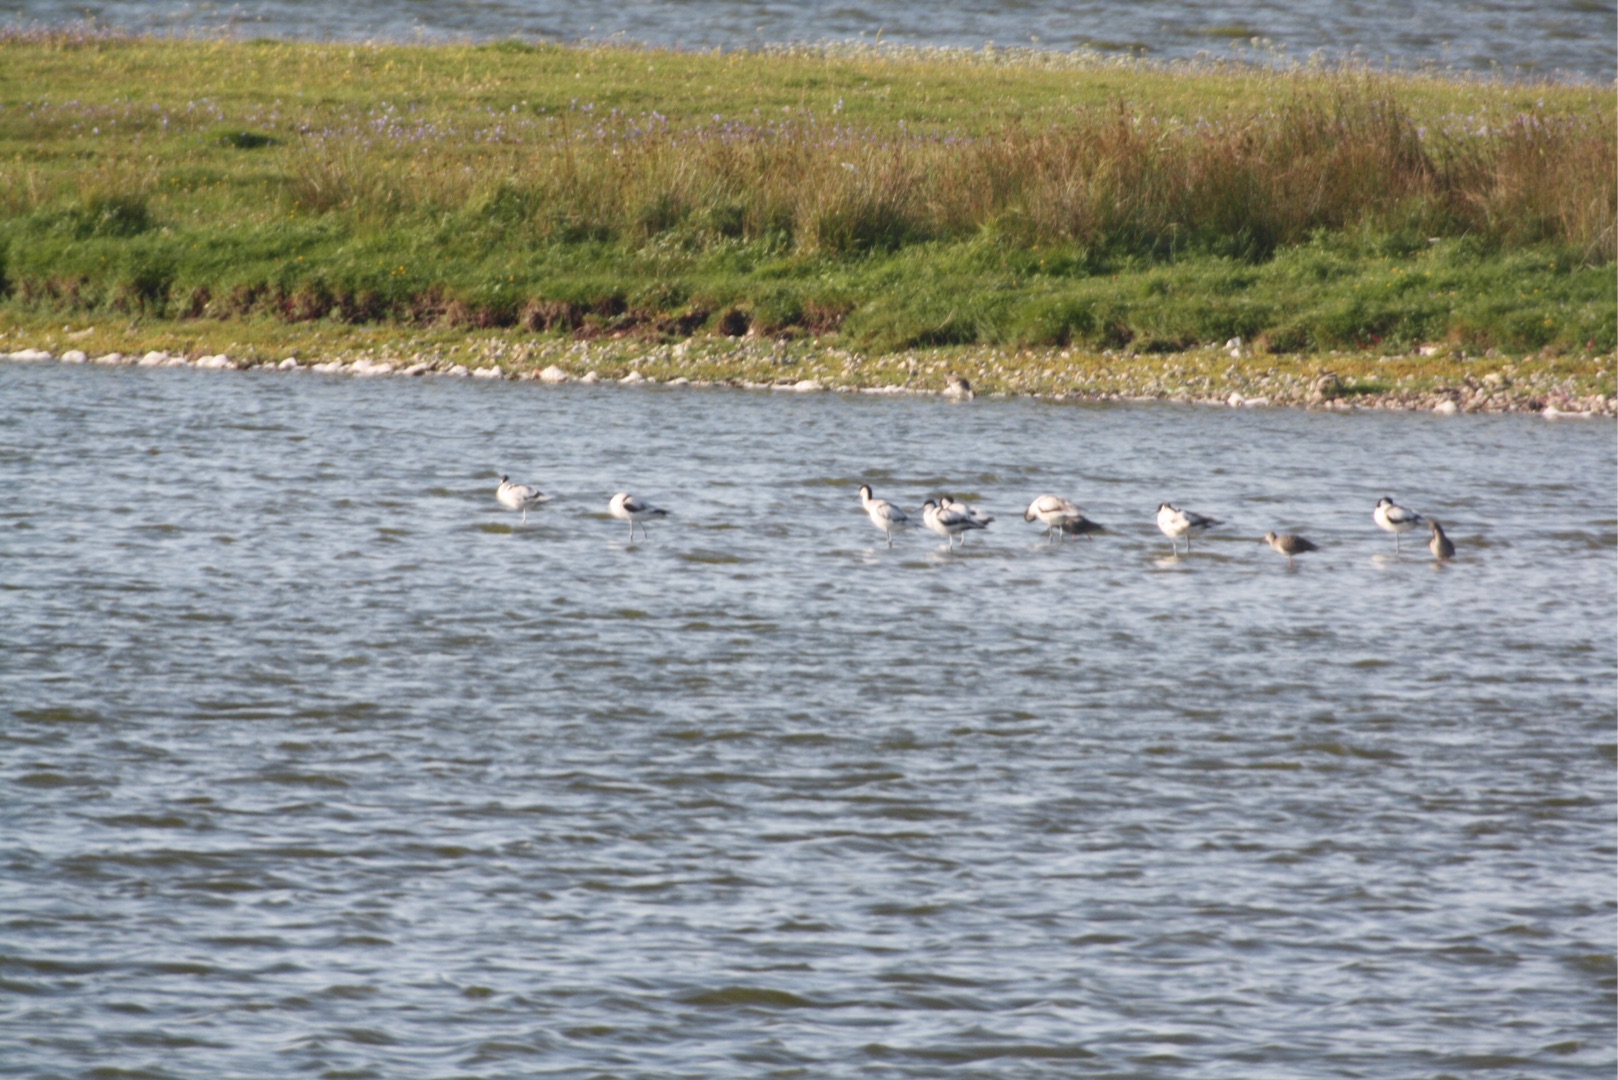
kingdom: Animalia
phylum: Chordata
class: Aves
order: Charadriiformes
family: Recurvirostridae
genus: Recurvirostra
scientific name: Recurvirostra avosetta
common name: Klyde
